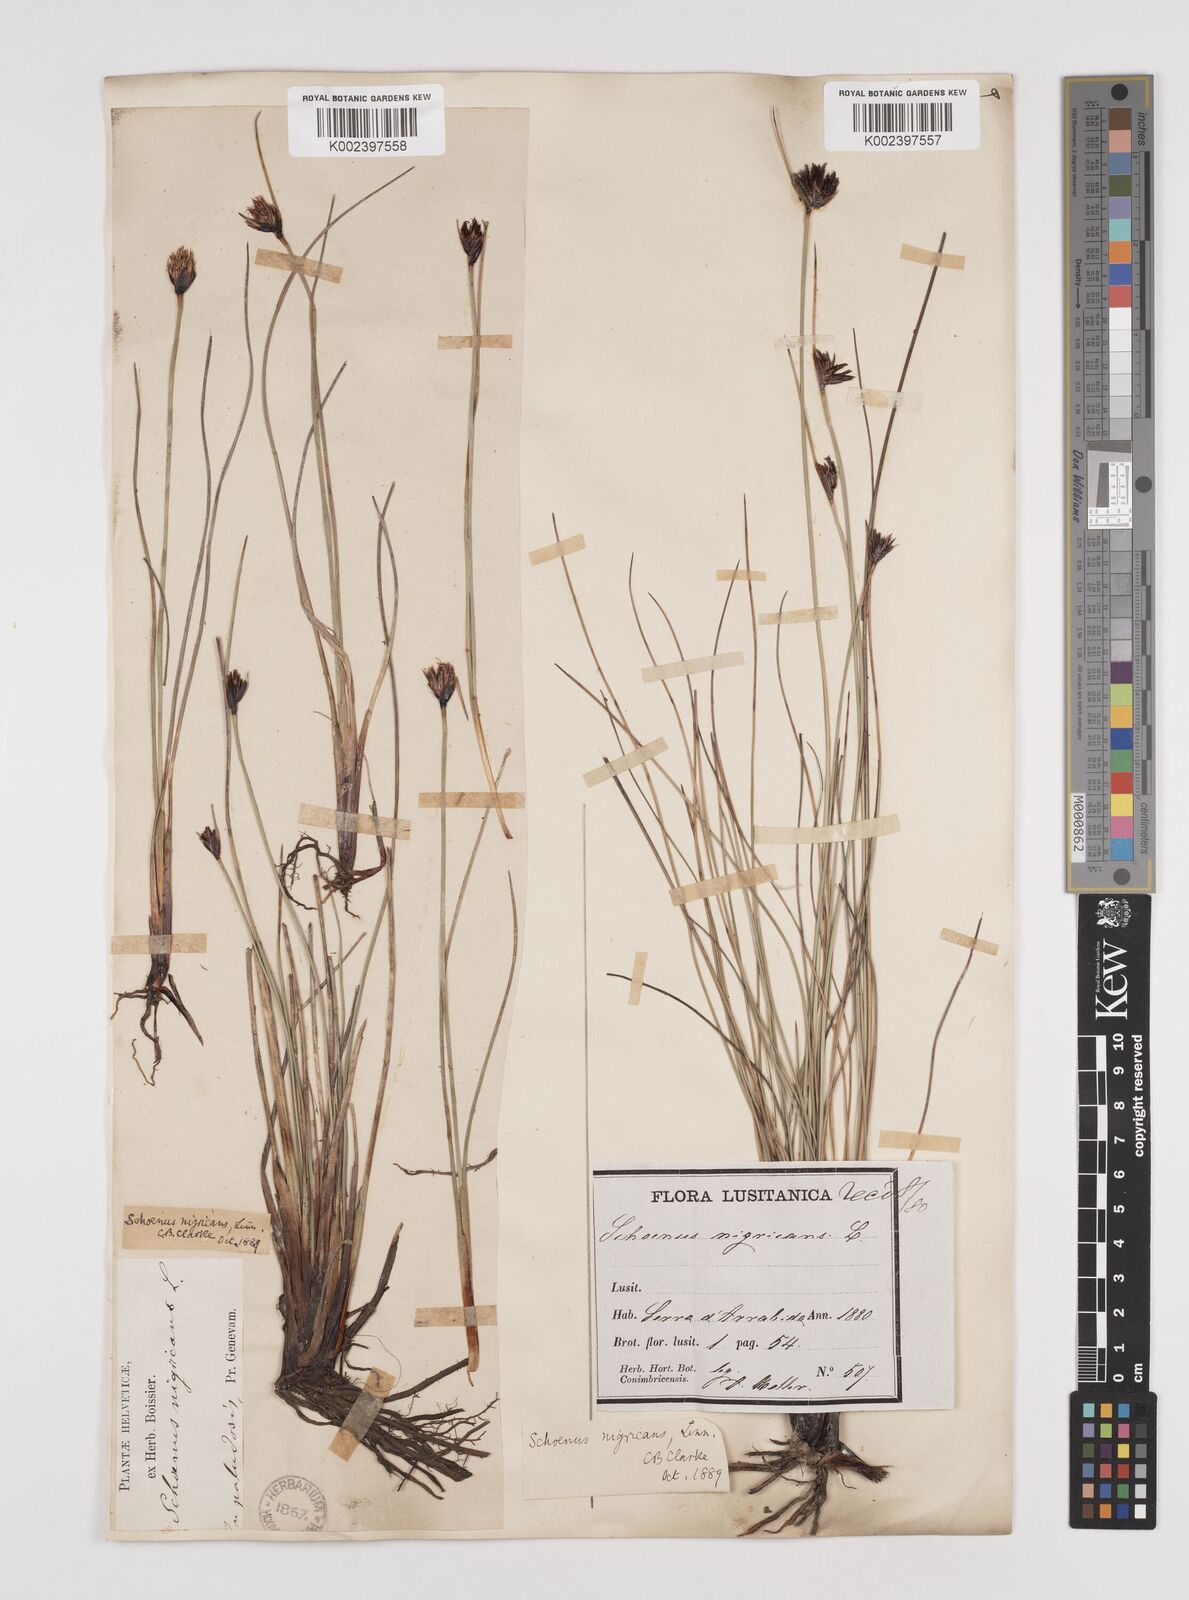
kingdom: Plantae
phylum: Tracheophyta
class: Liliopsida
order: Poales
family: Cyperaceae
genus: Schoenus
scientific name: Schoenus nigricans
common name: Black bog-rush
